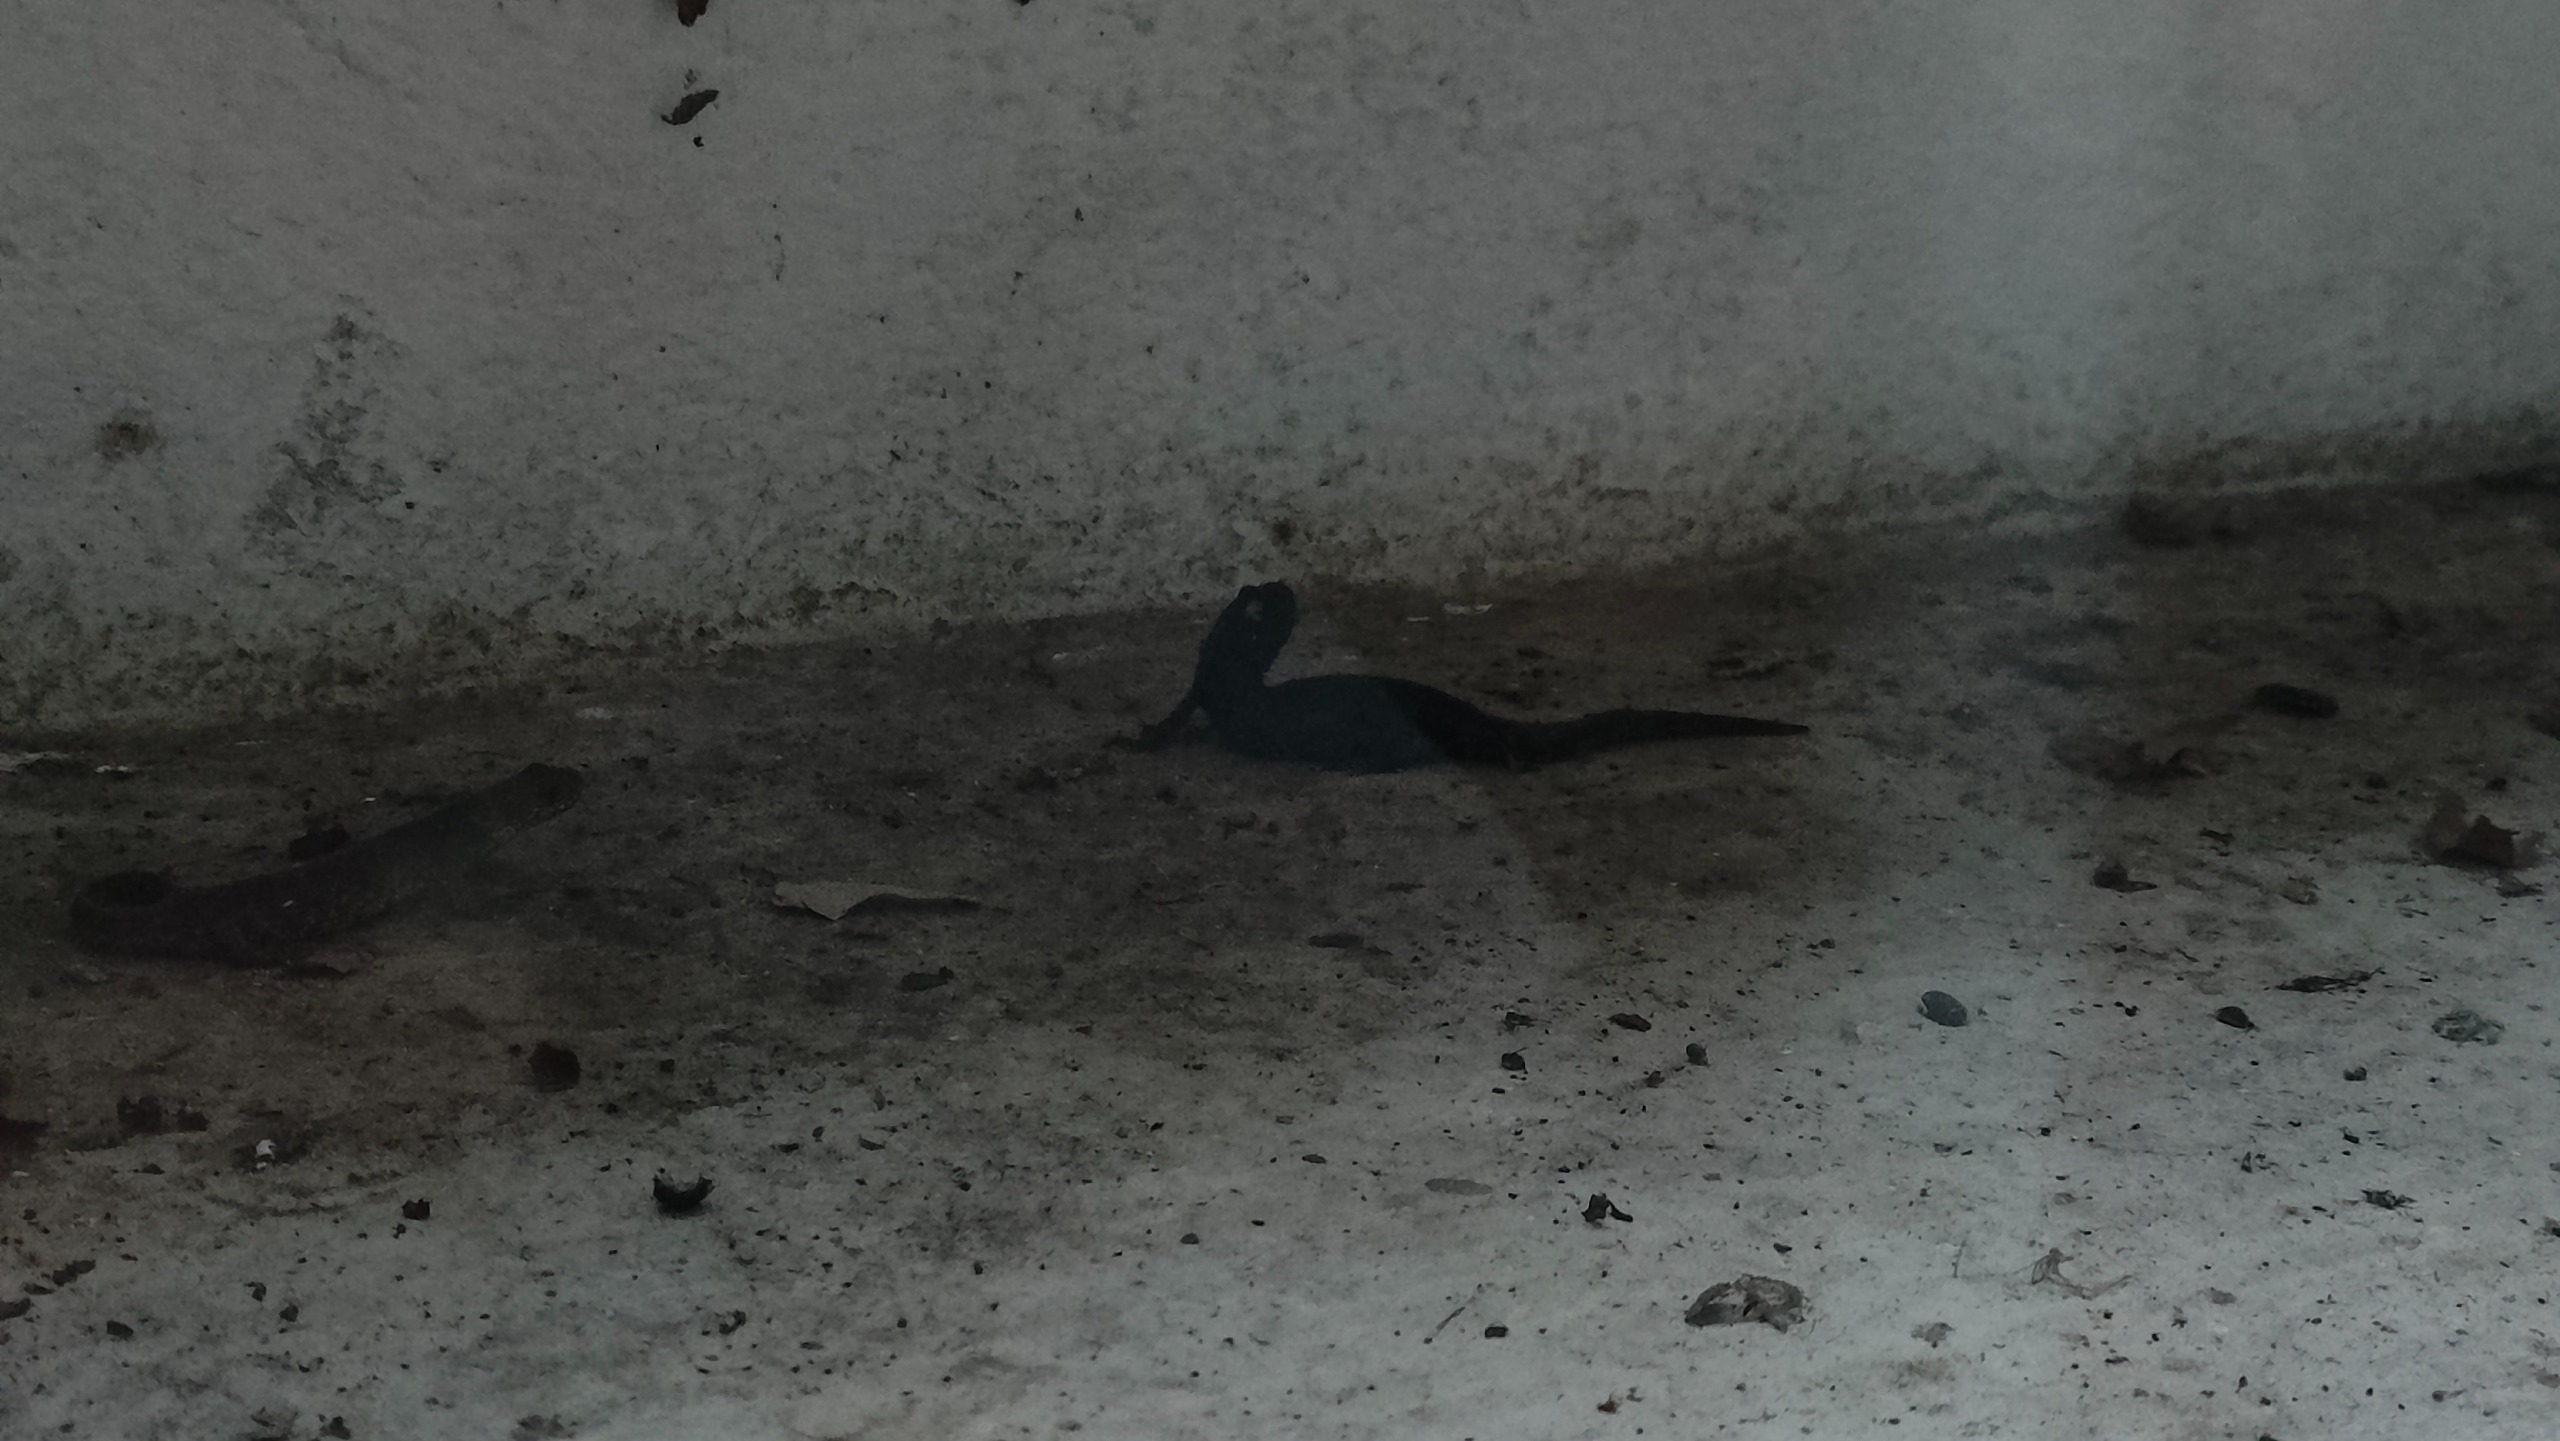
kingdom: Animalia
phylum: Chordata
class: Amphibia
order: Caudata
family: Salamandridae
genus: Triturus
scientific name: Triturus cristatus
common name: Stor vandsalamander
